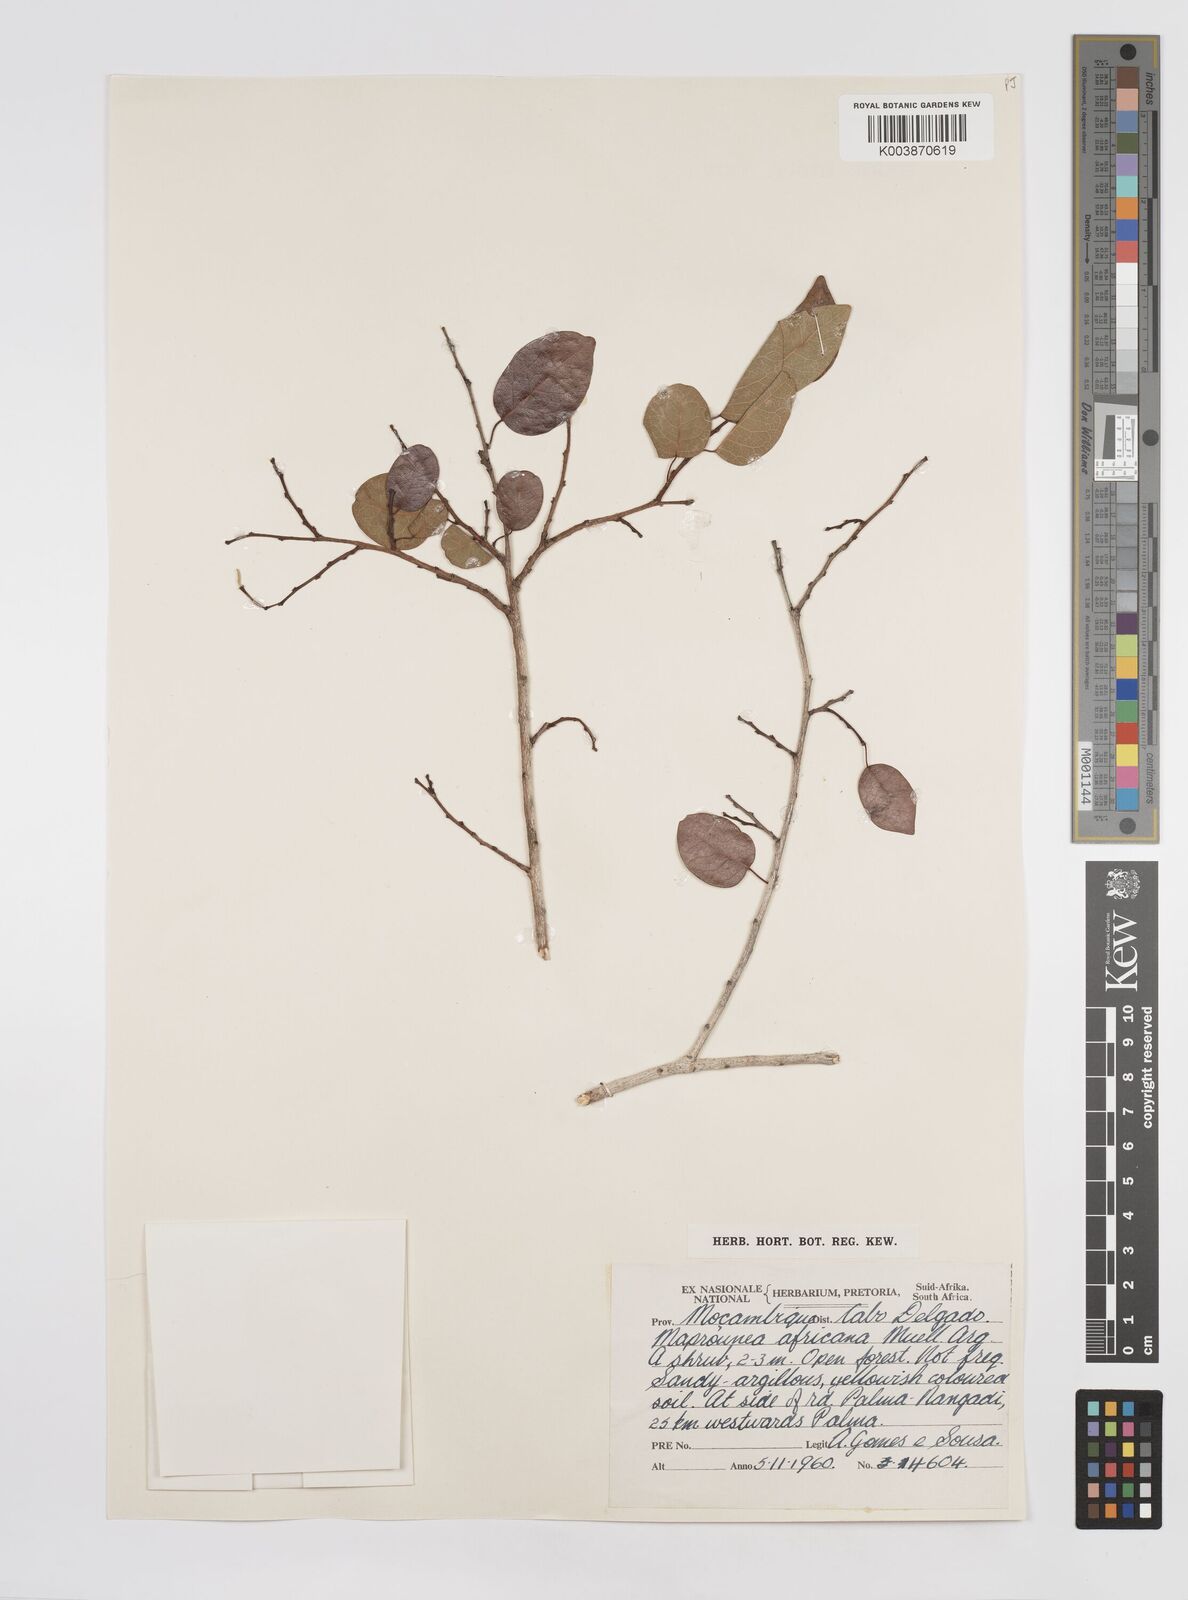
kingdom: Plantae
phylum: Tracheophyta
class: Magnoliopsida
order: Malpighiales
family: Euphorbiaceae
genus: Maprounea
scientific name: Maprounea africana
